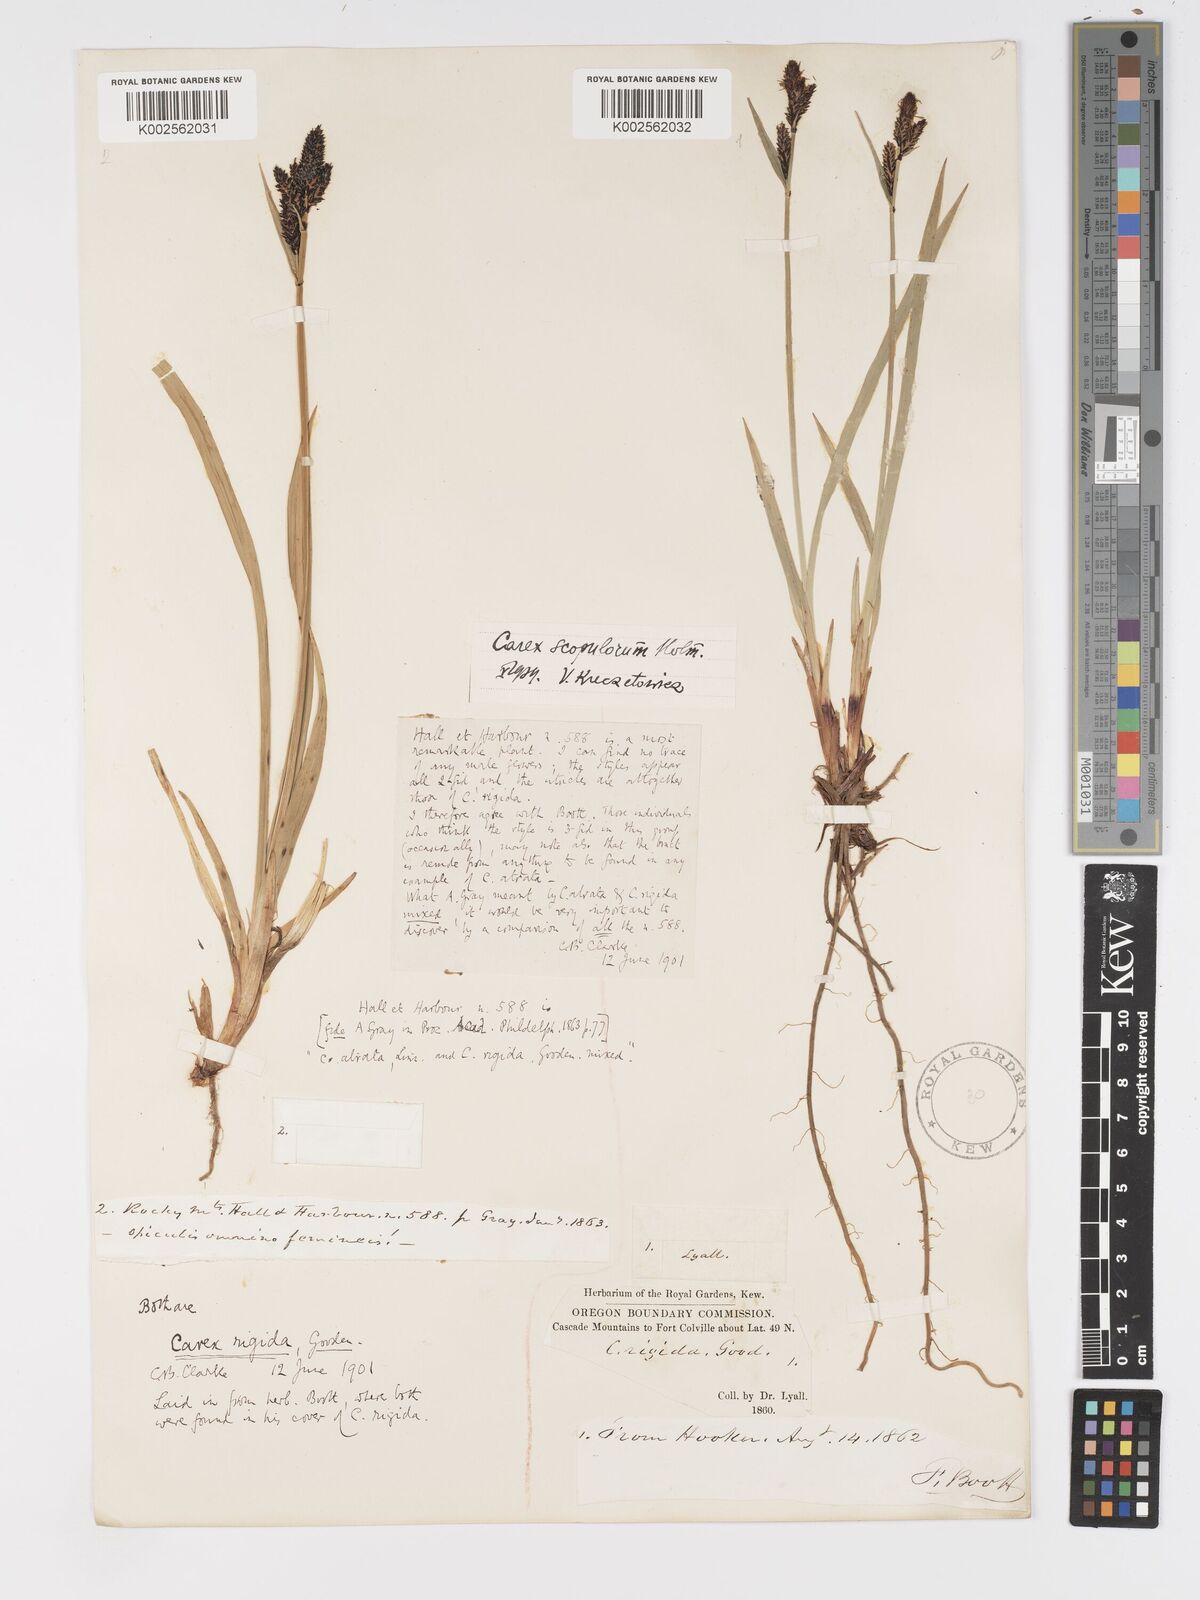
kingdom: Plantae
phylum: Tracheophyta
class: Liliopsida
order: Poales
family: Cyperaceae
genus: Carex
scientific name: Carex scopulorum
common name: Holm's rocky mountain sedge
